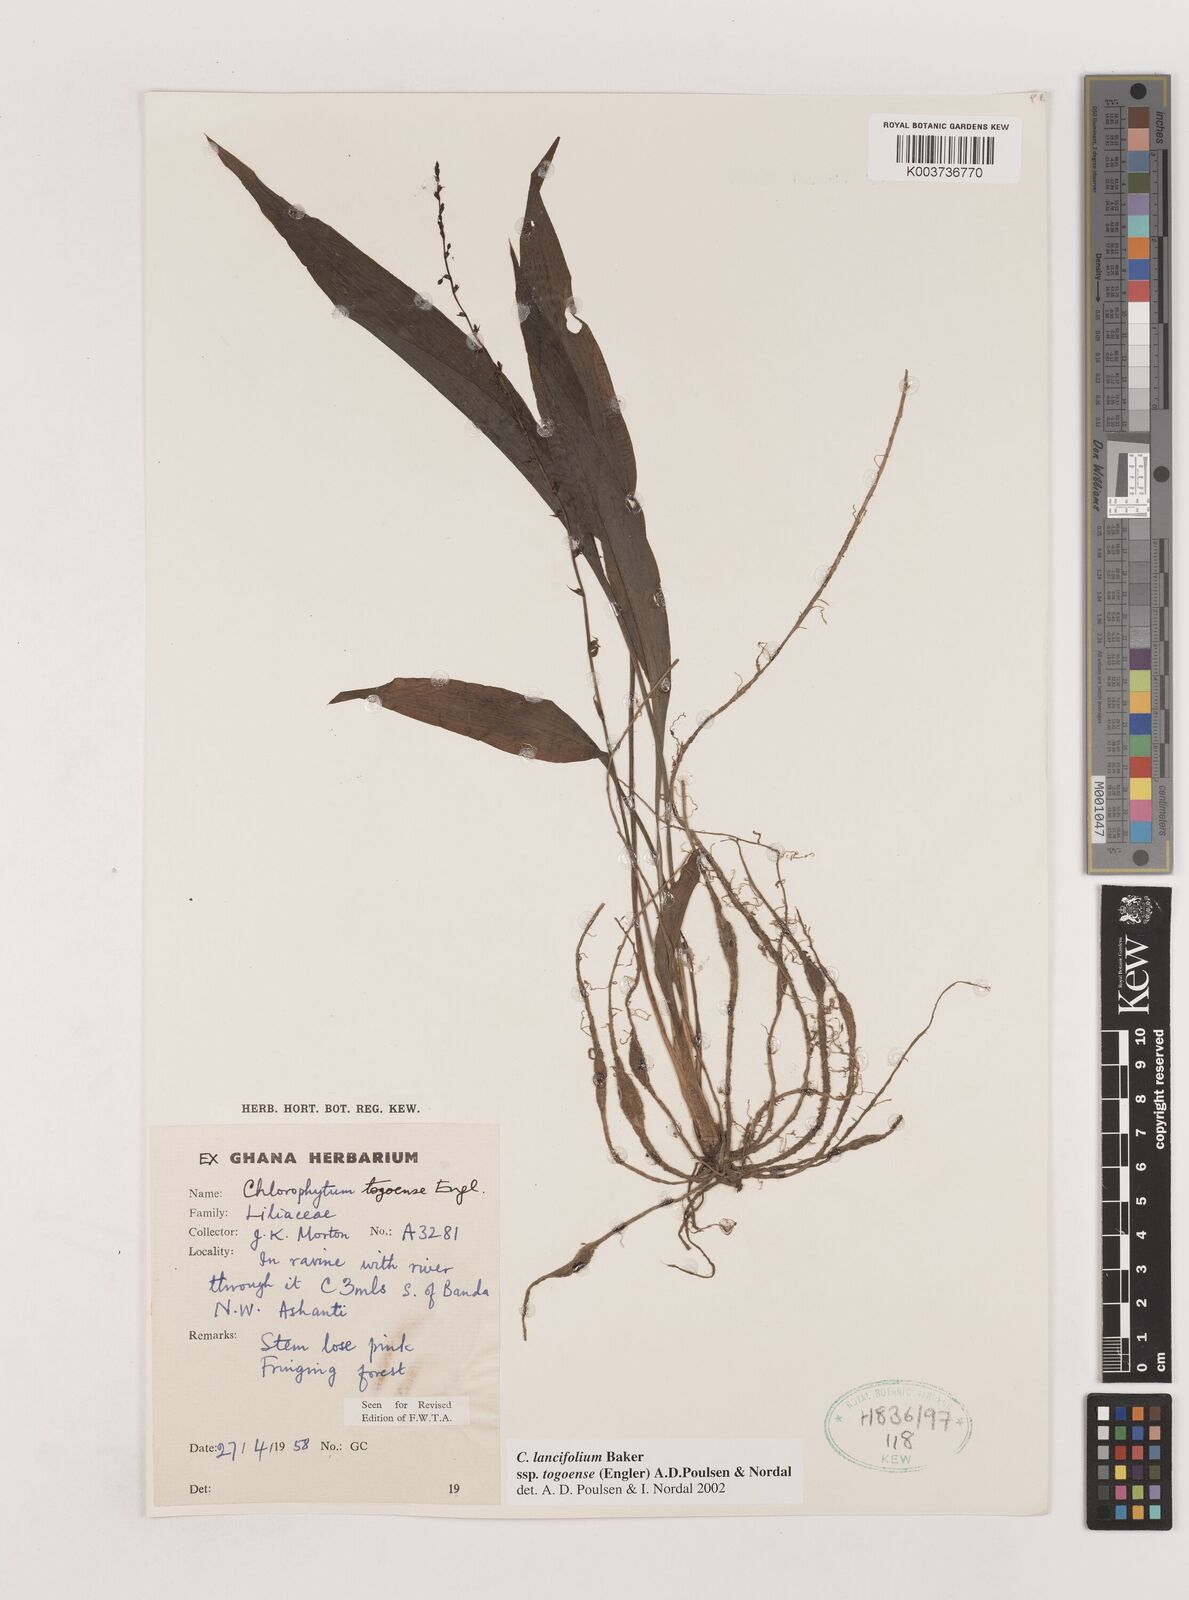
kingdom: Plantae
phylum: Tracheophyta
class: Liliopsida
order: Asparagales
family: Asparagaceae
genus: Chlorophytum
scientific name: Chlorophytum lancifolium
